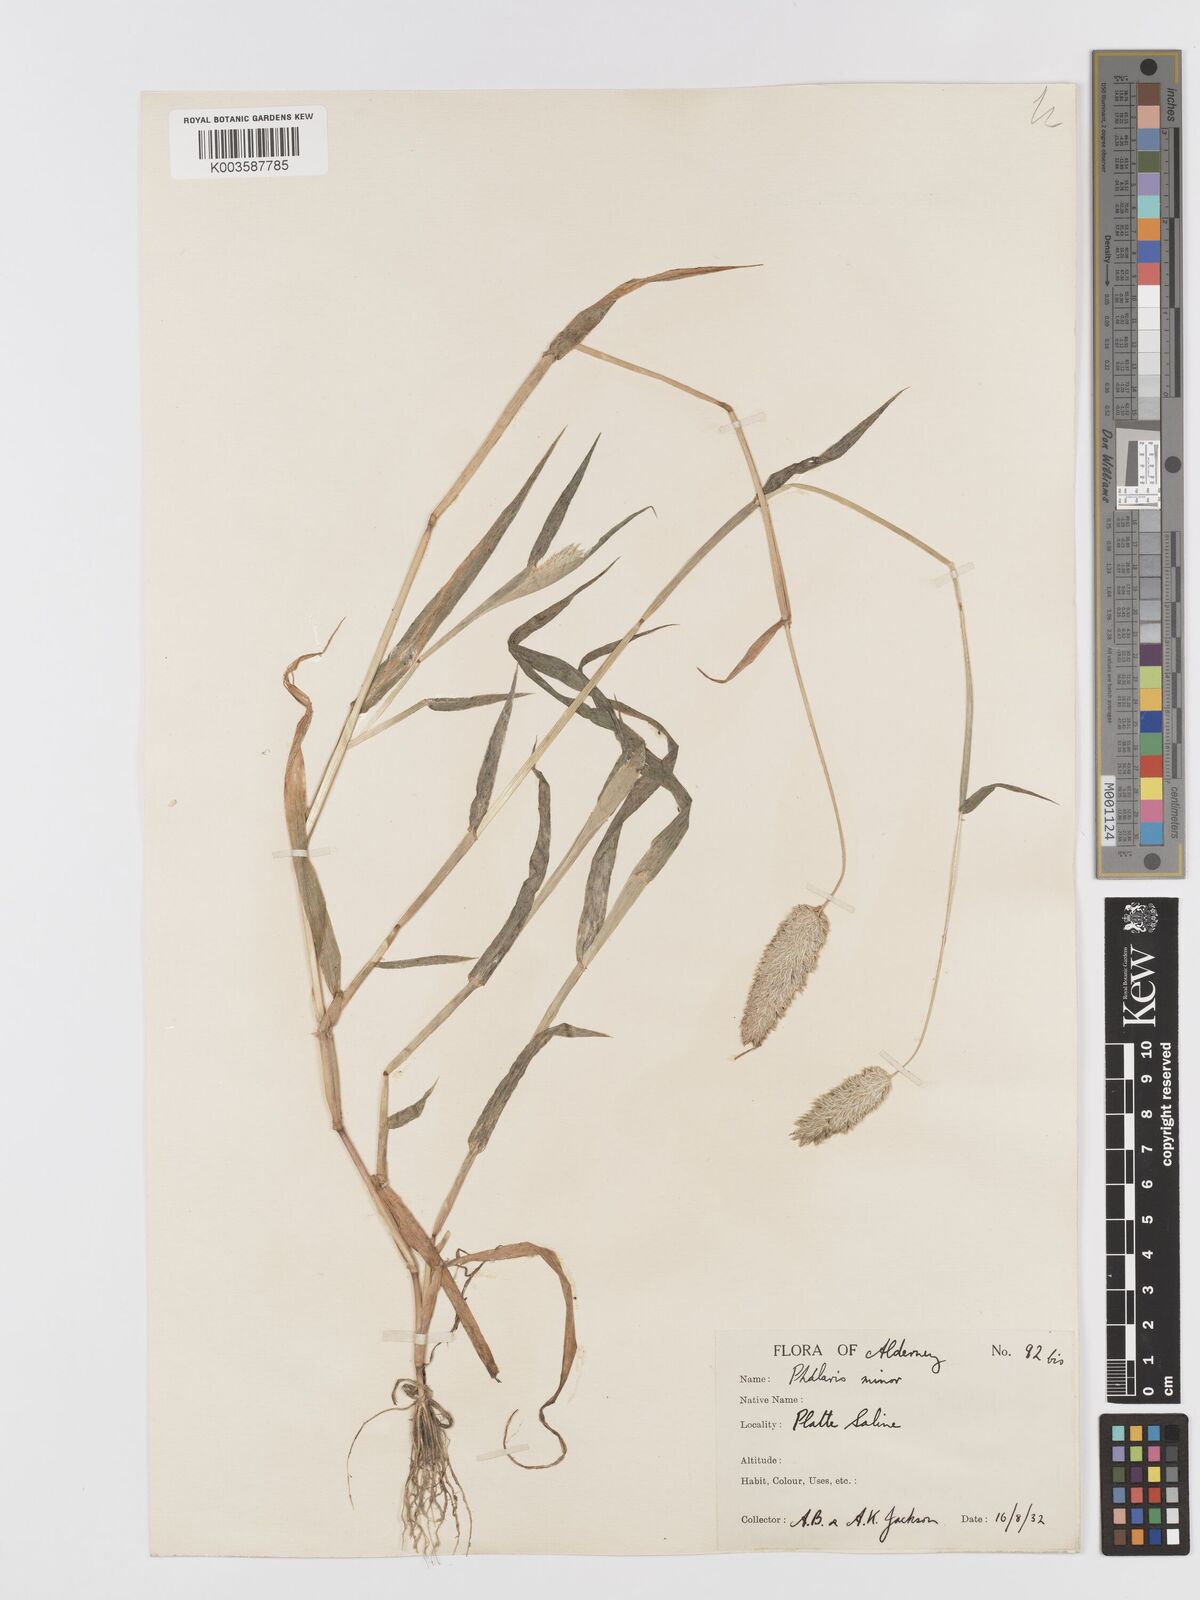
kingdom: Plantae
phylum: Tracheophyta
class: Liliopsida
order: Poales
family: Poaceae
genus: Phalaris
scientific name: Phalaris minor
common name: Littleseed canarygrass
